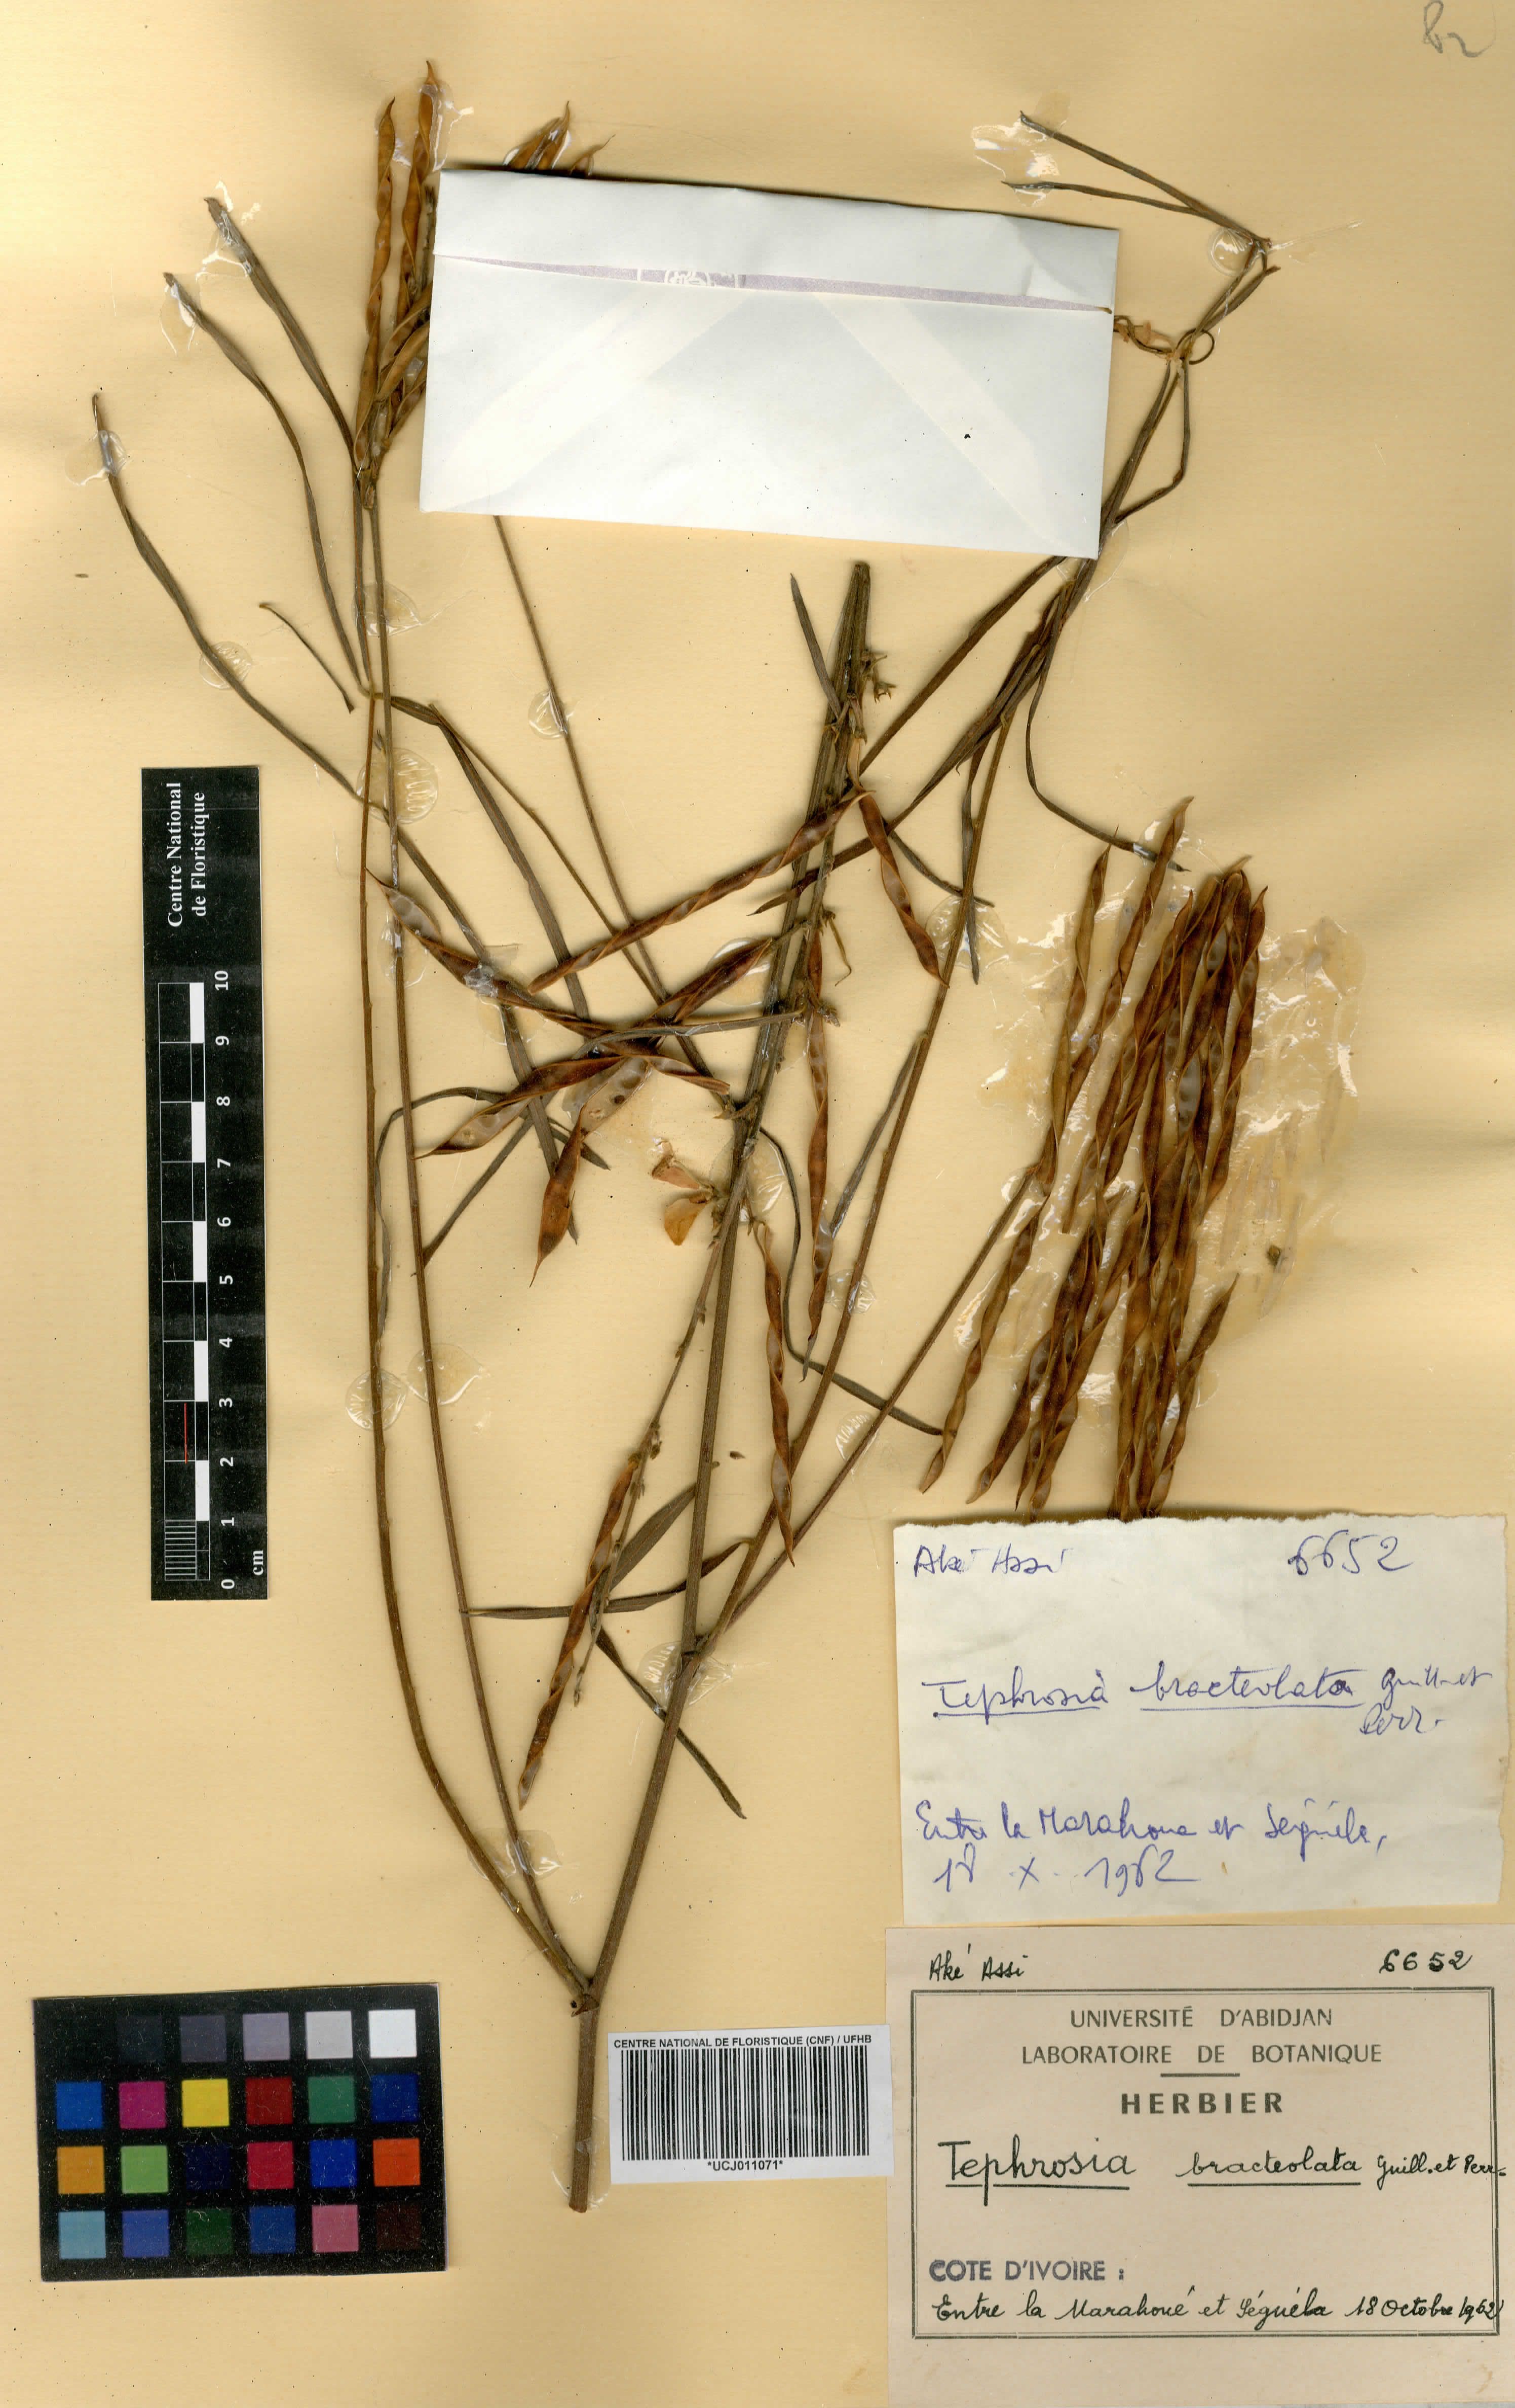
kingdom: Plantae
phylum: Tracheophyta
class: Magnoliopsida
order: Fabales
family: Fabaceae
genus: Tephrosia
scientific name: Tephrosia bracteolata
